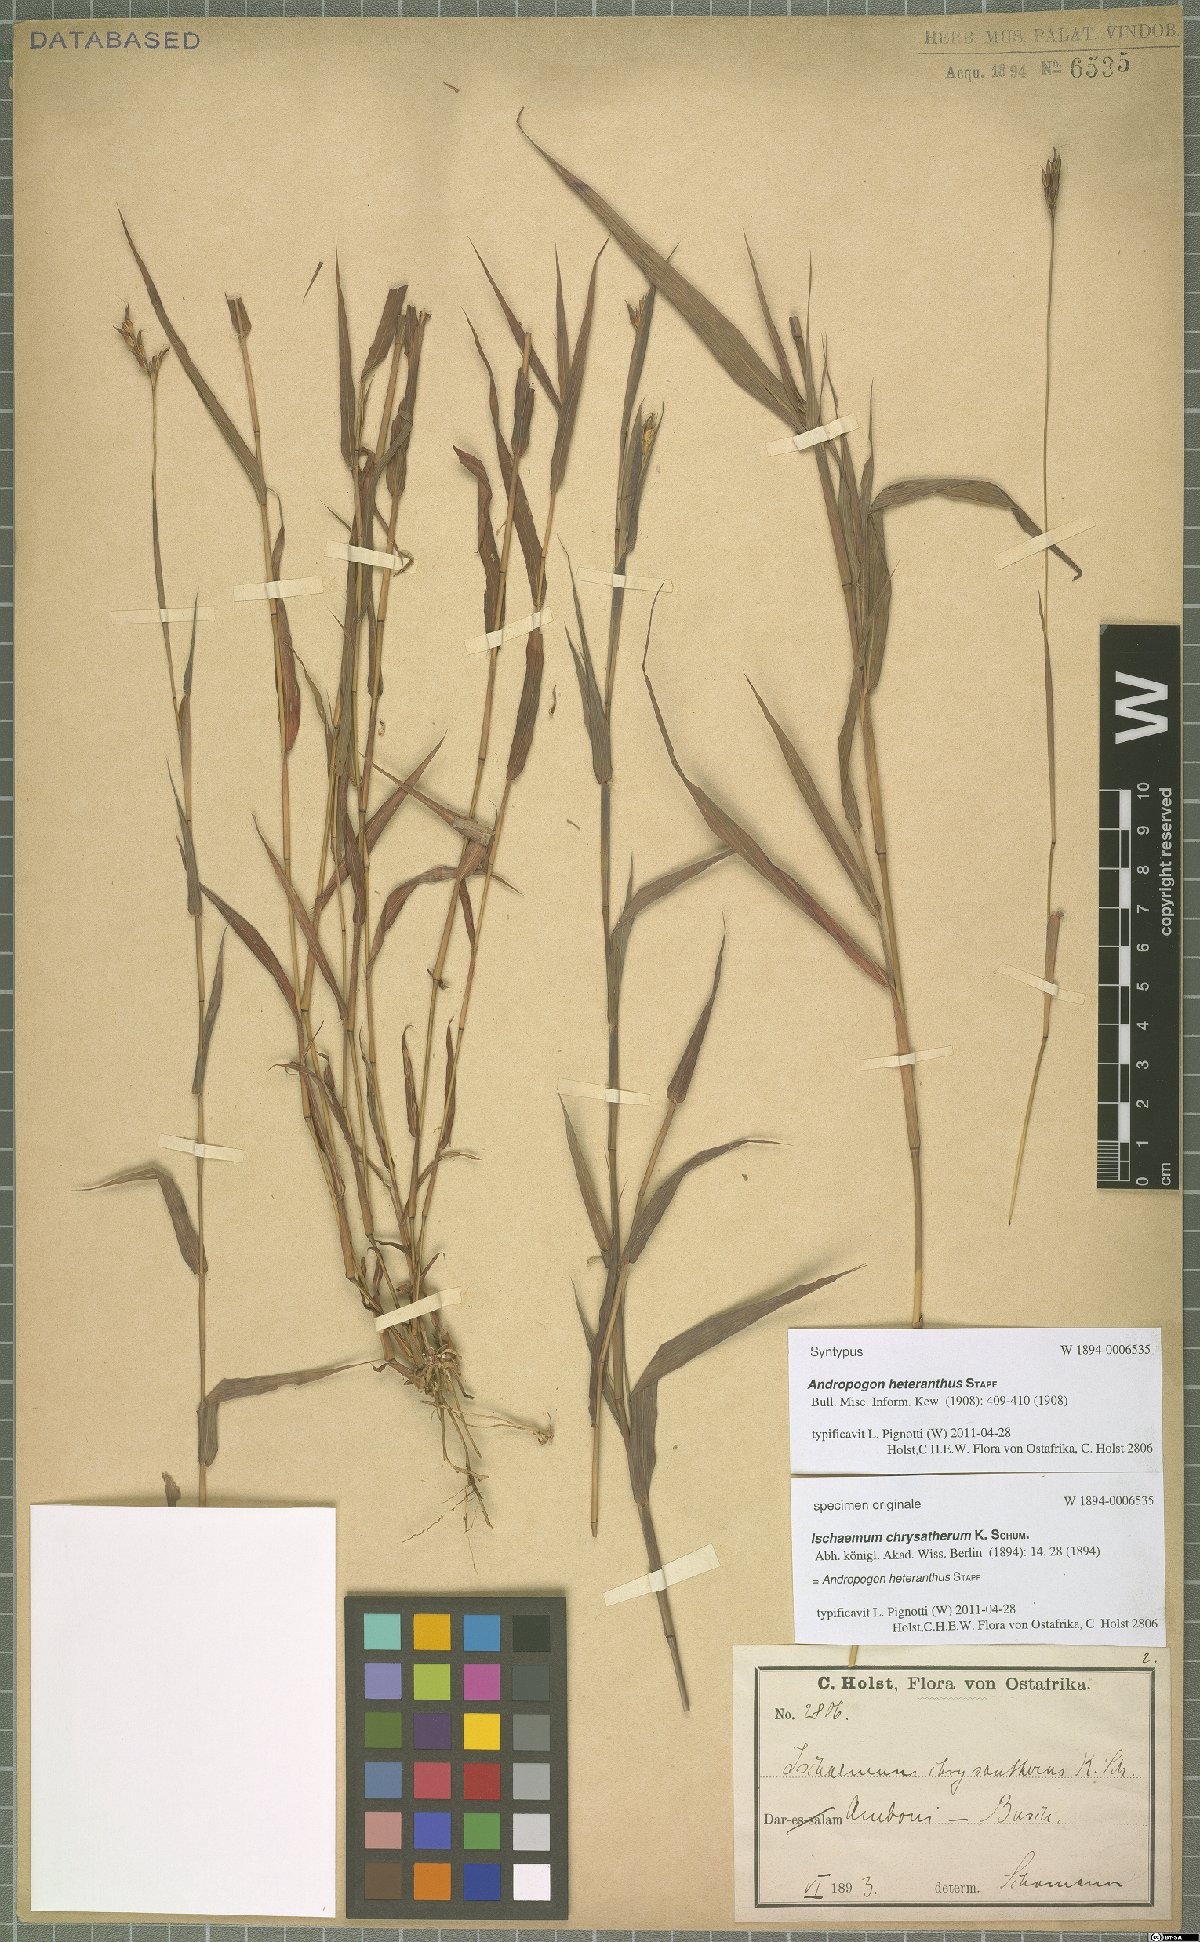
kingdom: Plantae
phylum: Tracheophyta
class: Liliopsida
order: Poales
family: Poaceae
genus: Andropogon
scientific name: Andropogon heterantherus
